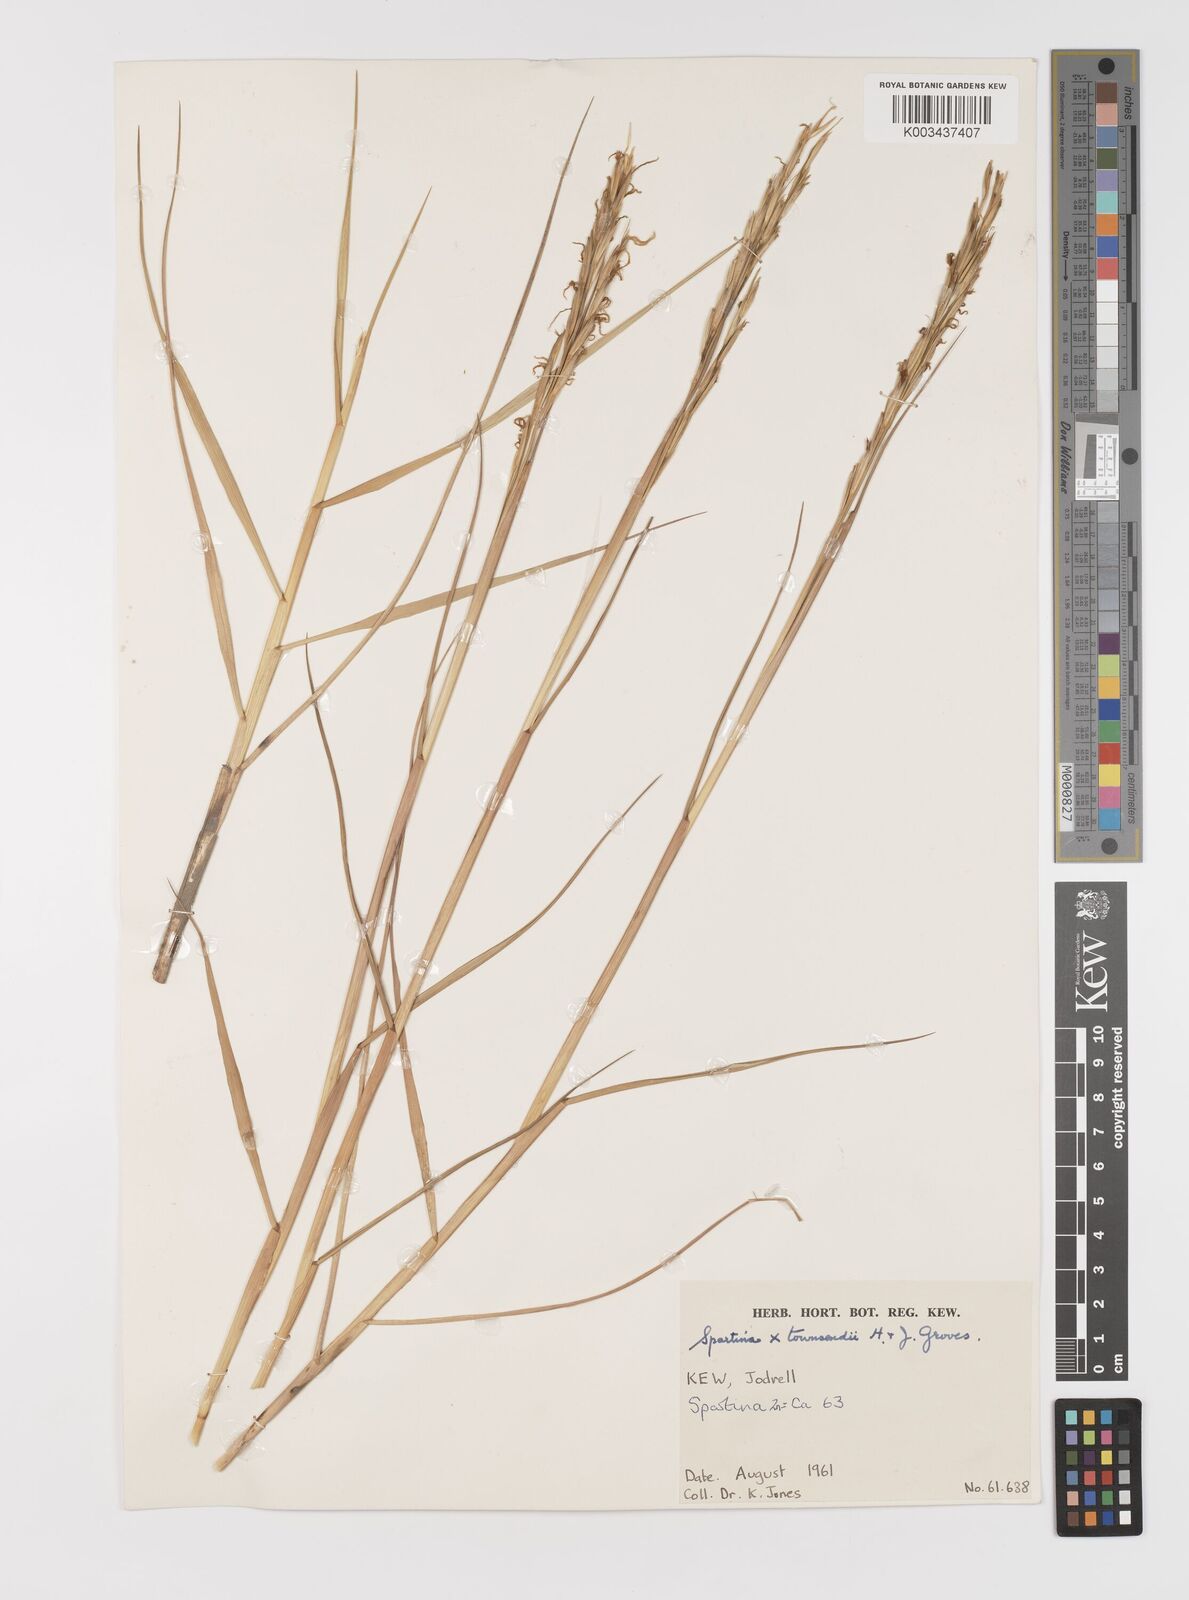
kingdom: Plantae
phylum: Tracheophyta
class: Liliopsida
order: Poales
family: Poaceae
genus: Sporobolus
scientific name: Sporobolus townsendii
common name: Townsend's cordgrass
